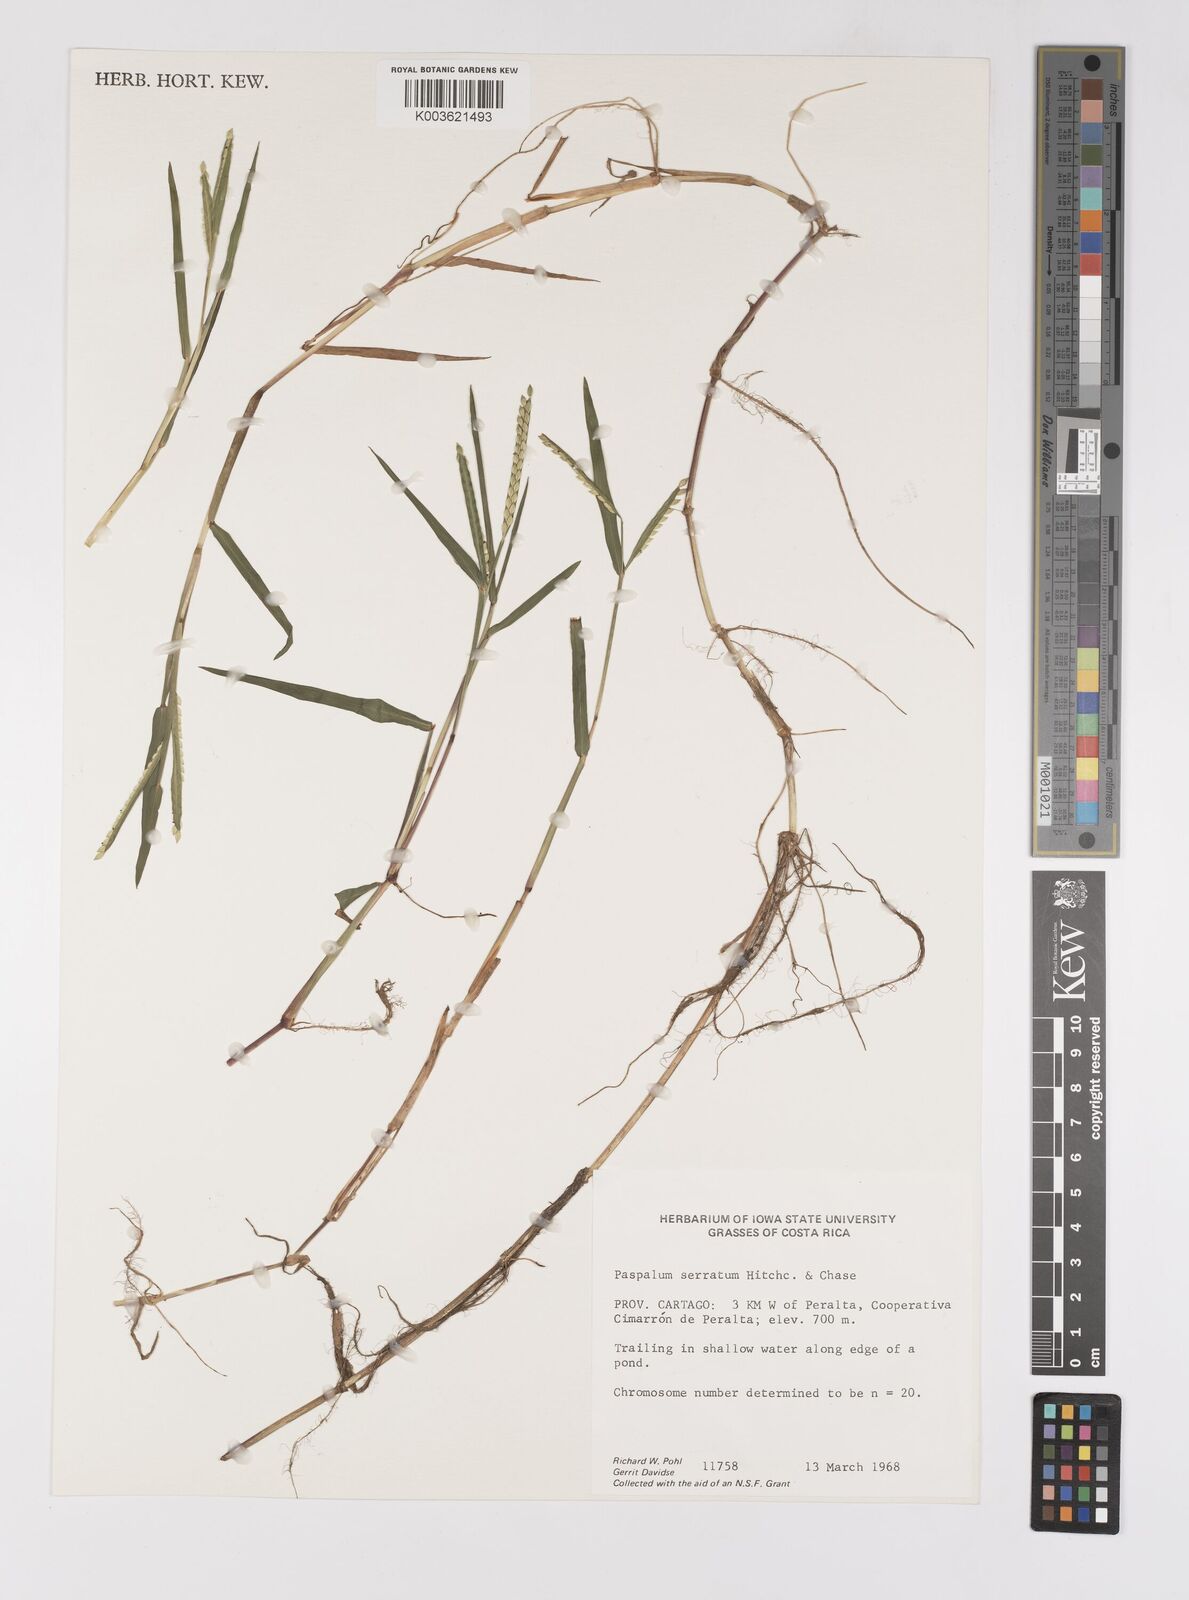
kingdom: Plantae
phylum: Tracheophyta
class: Liliopsida
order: Poales
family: Poaceae
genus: Paspalum
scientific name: Paspalum acuminatum
